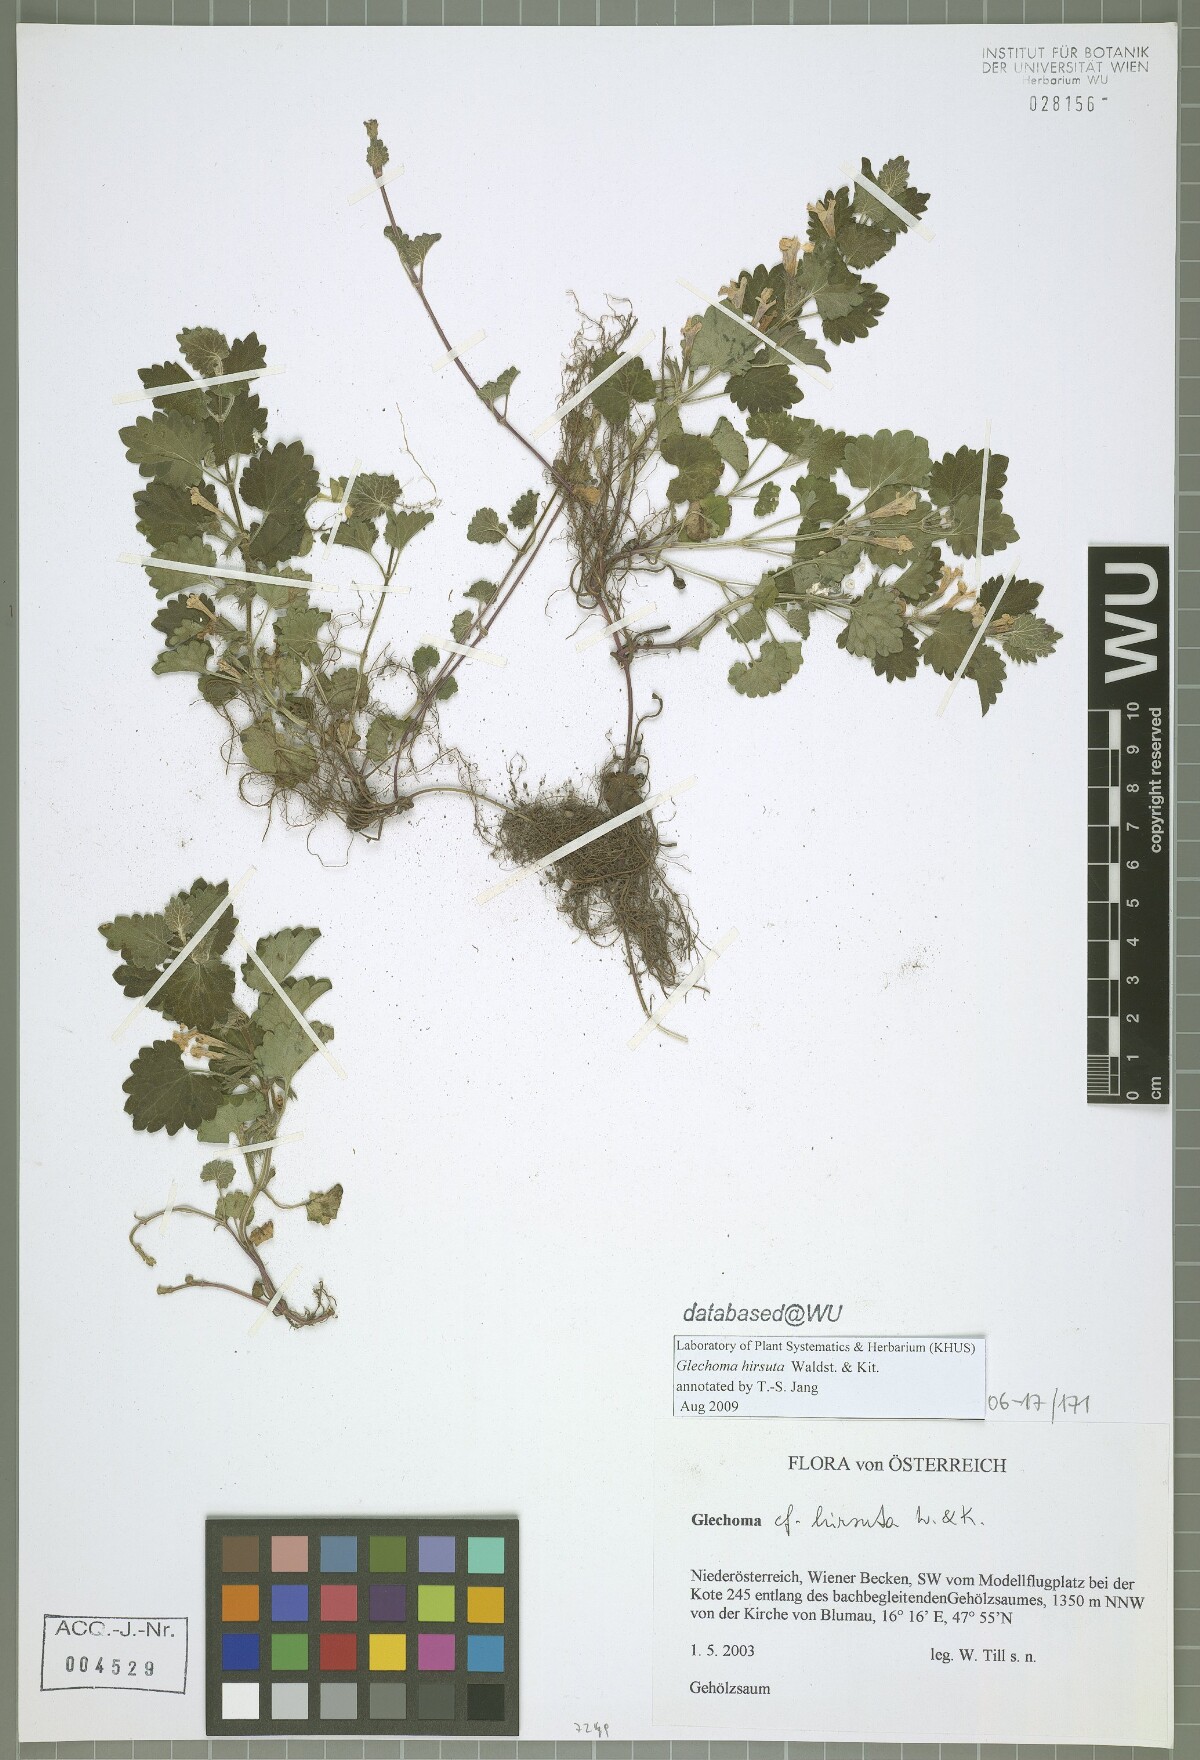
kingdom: Plantae
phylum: Tracheophyta
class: Magnoliopsida
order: Lamiales
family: Lamiaceae
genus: Glechoma
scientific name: Glechoma hirsuta
